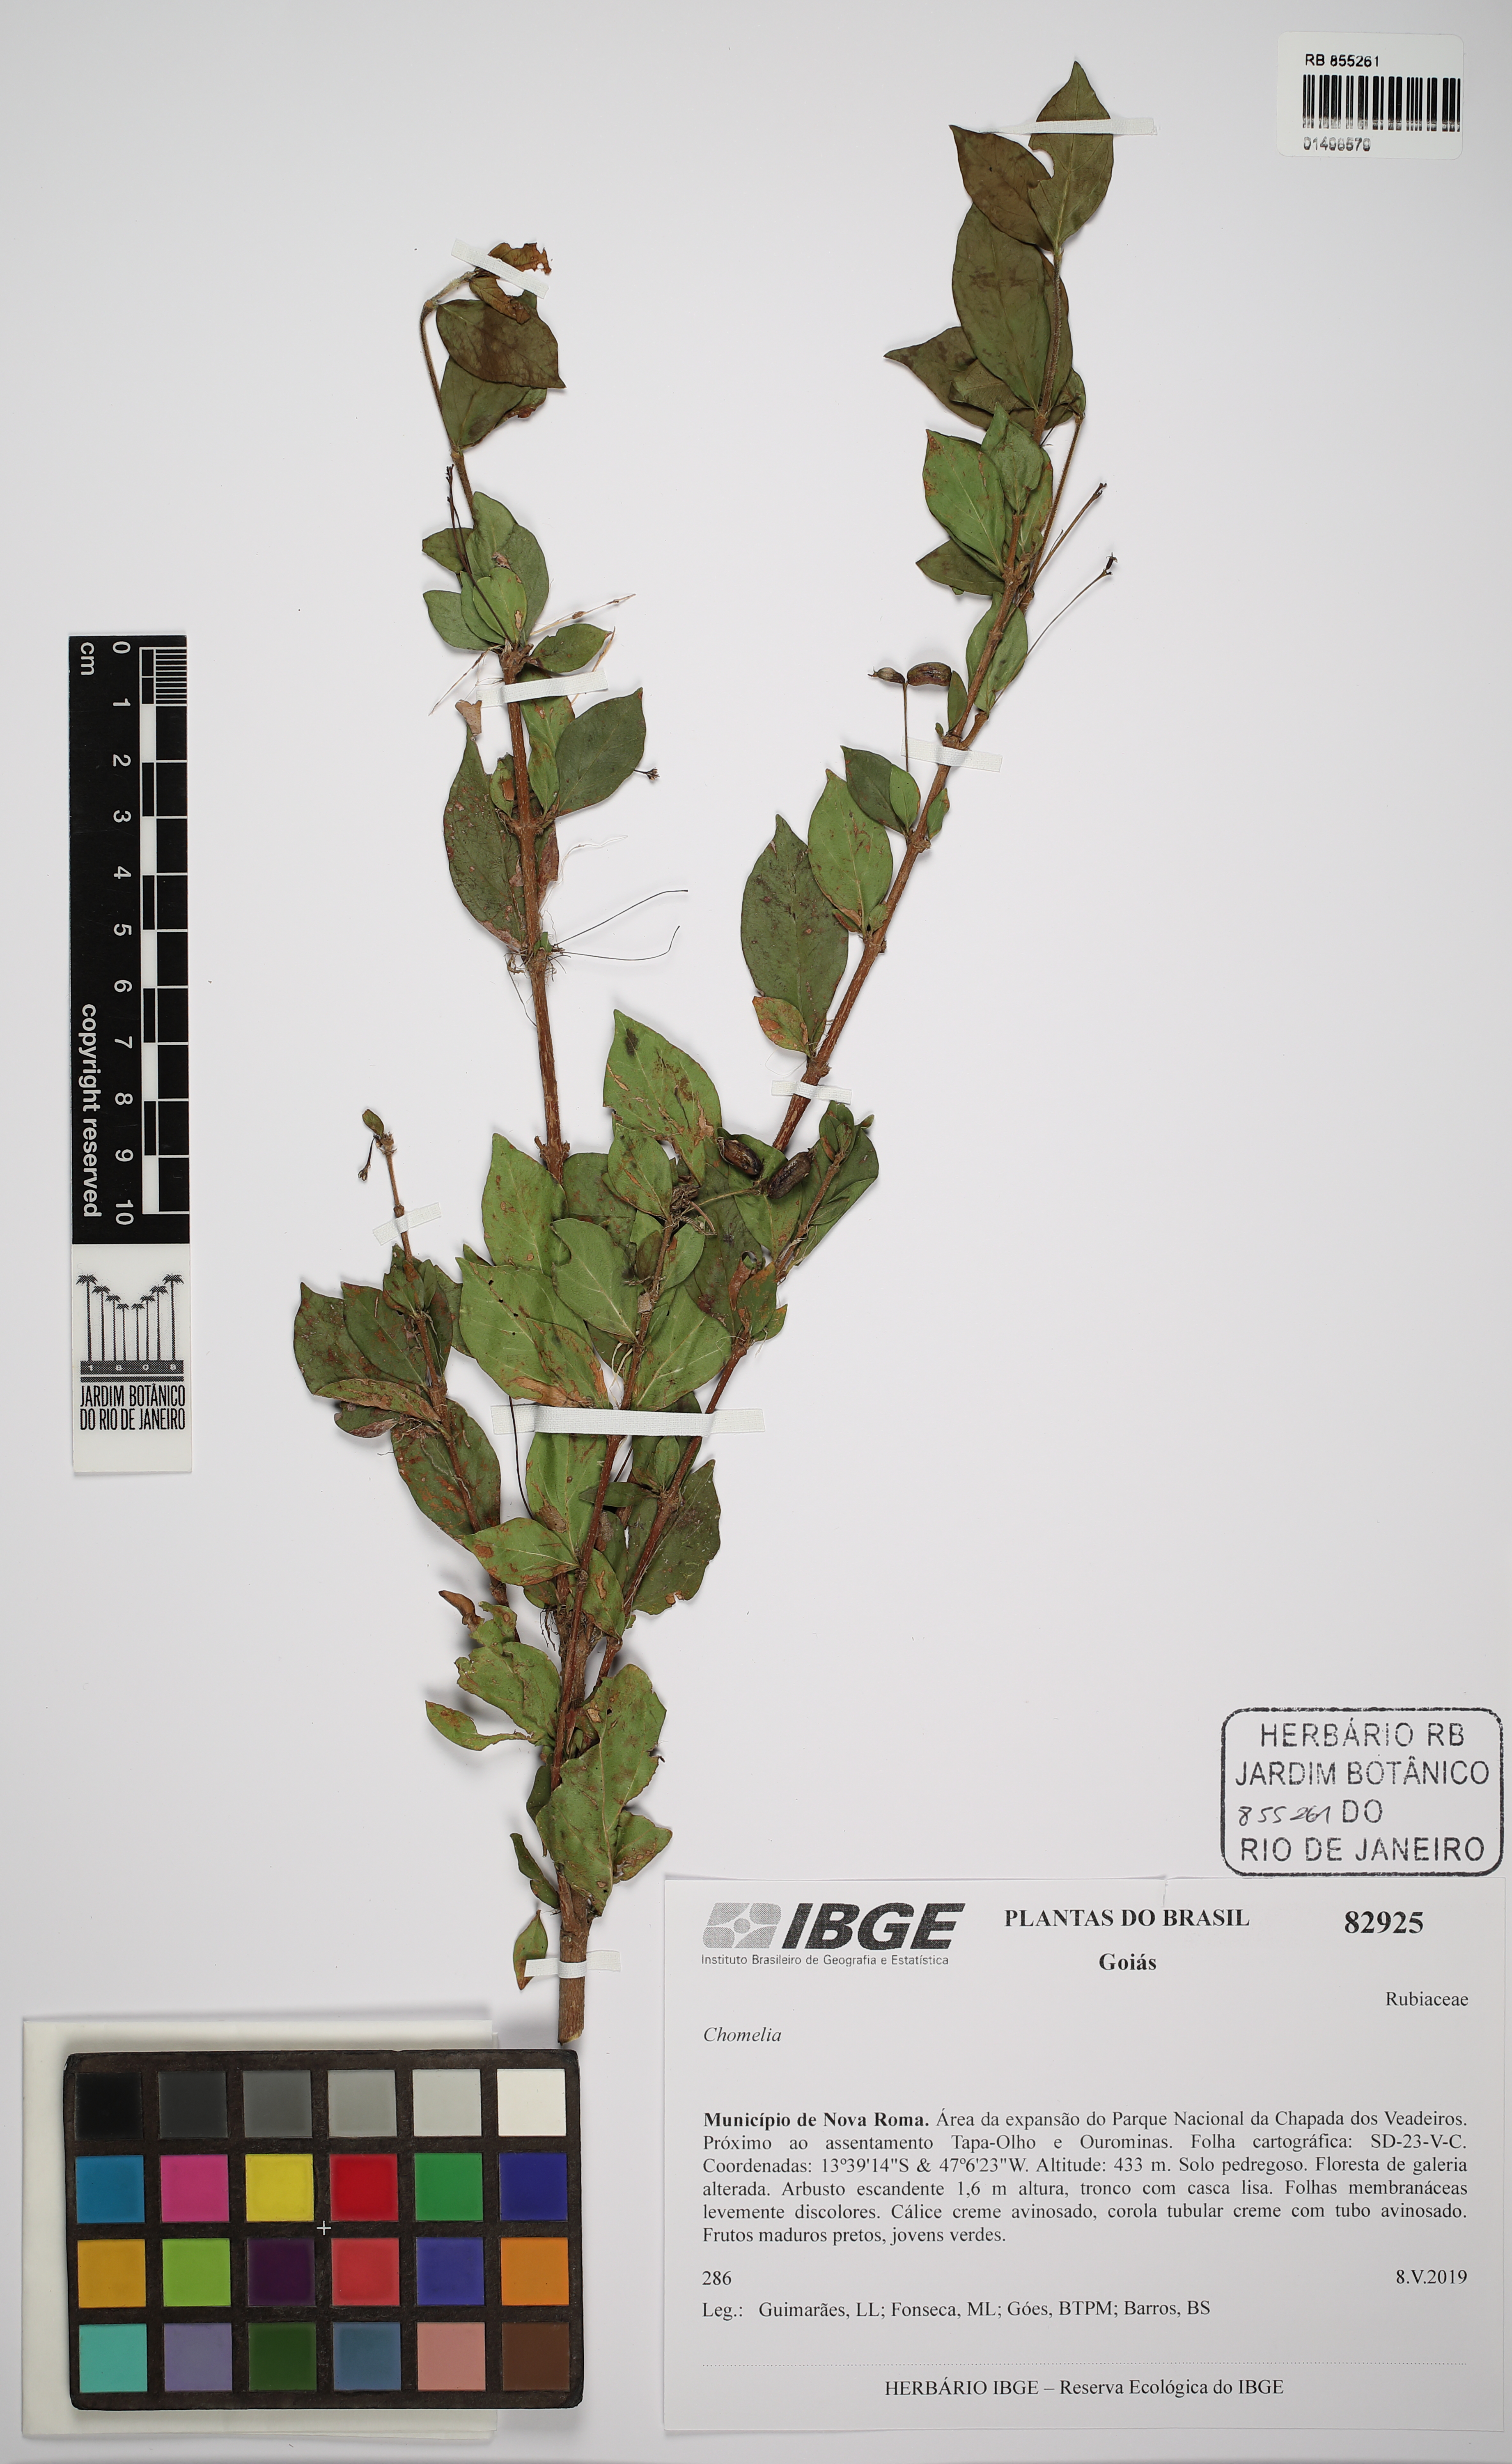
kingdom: Plantae
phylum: Tracheophyta
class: Magnoliopsida
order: Gentianales
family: Rubiaceae
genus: Chomelia
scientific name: Chomelia
